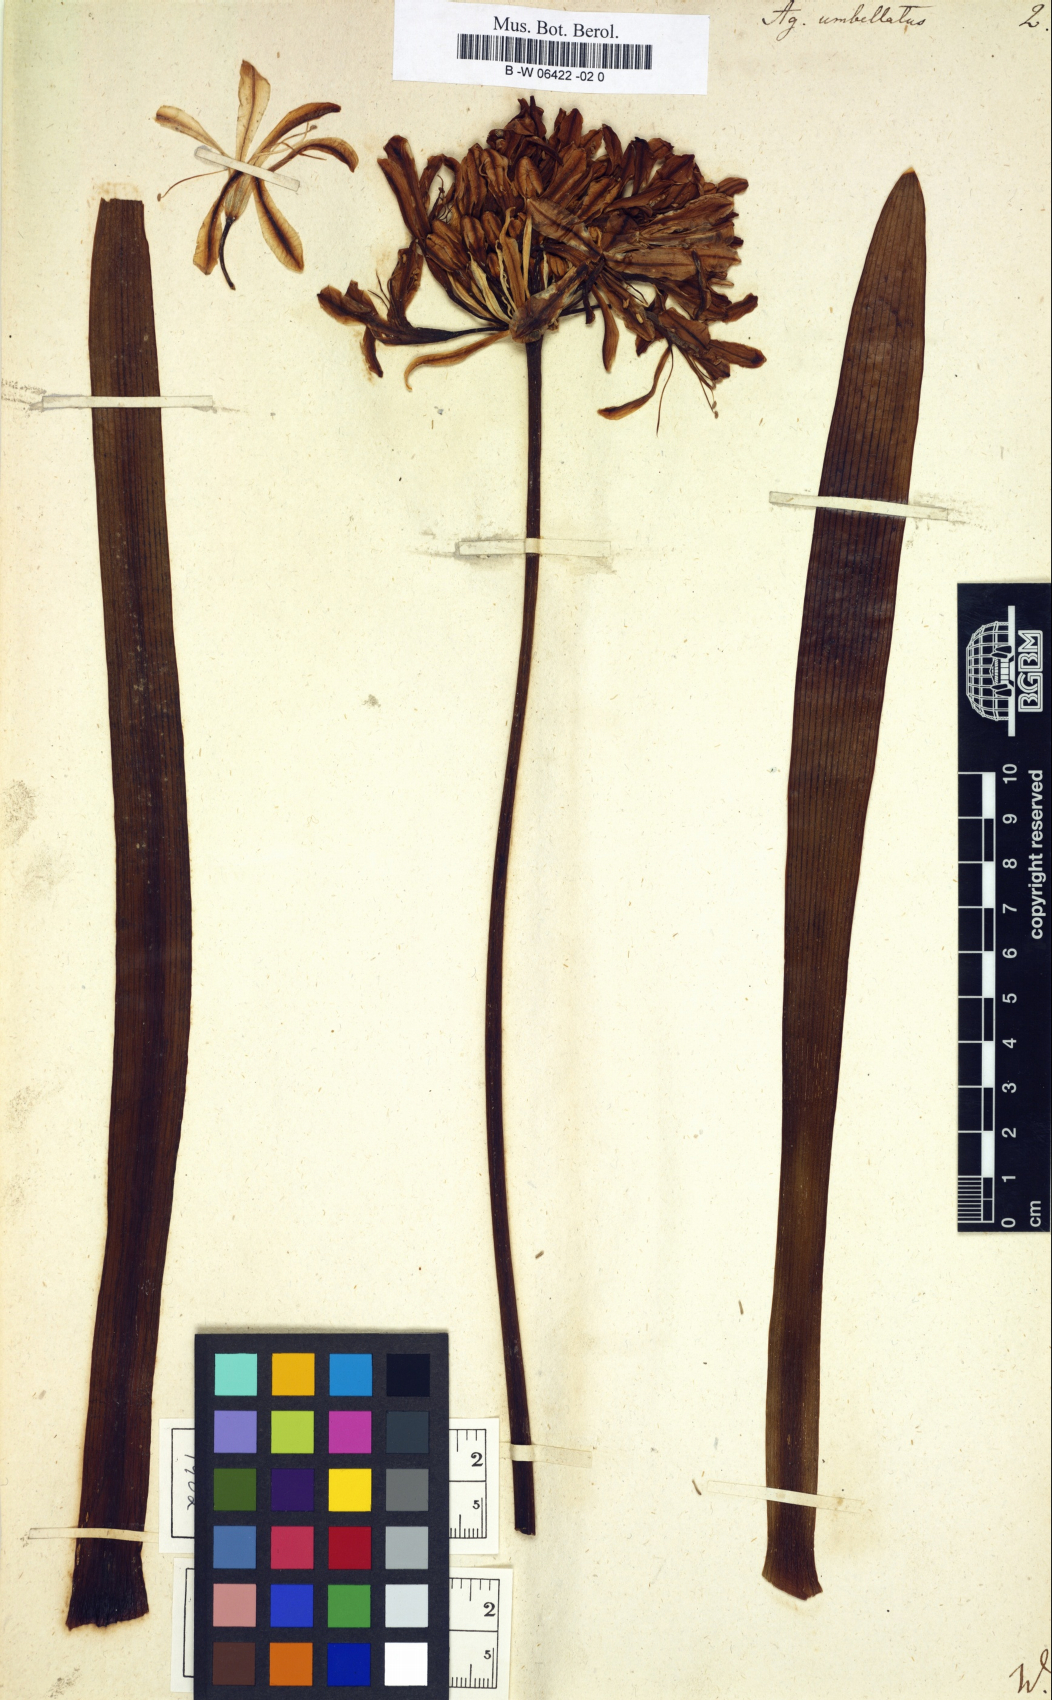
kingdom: Plantae
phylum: Tracheophyta
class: Liliopsida
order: Asparagales
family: Amaryllidaceae
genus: Agapanthus
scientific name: Agapanthus africanus
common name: Lily-of-the-nile
